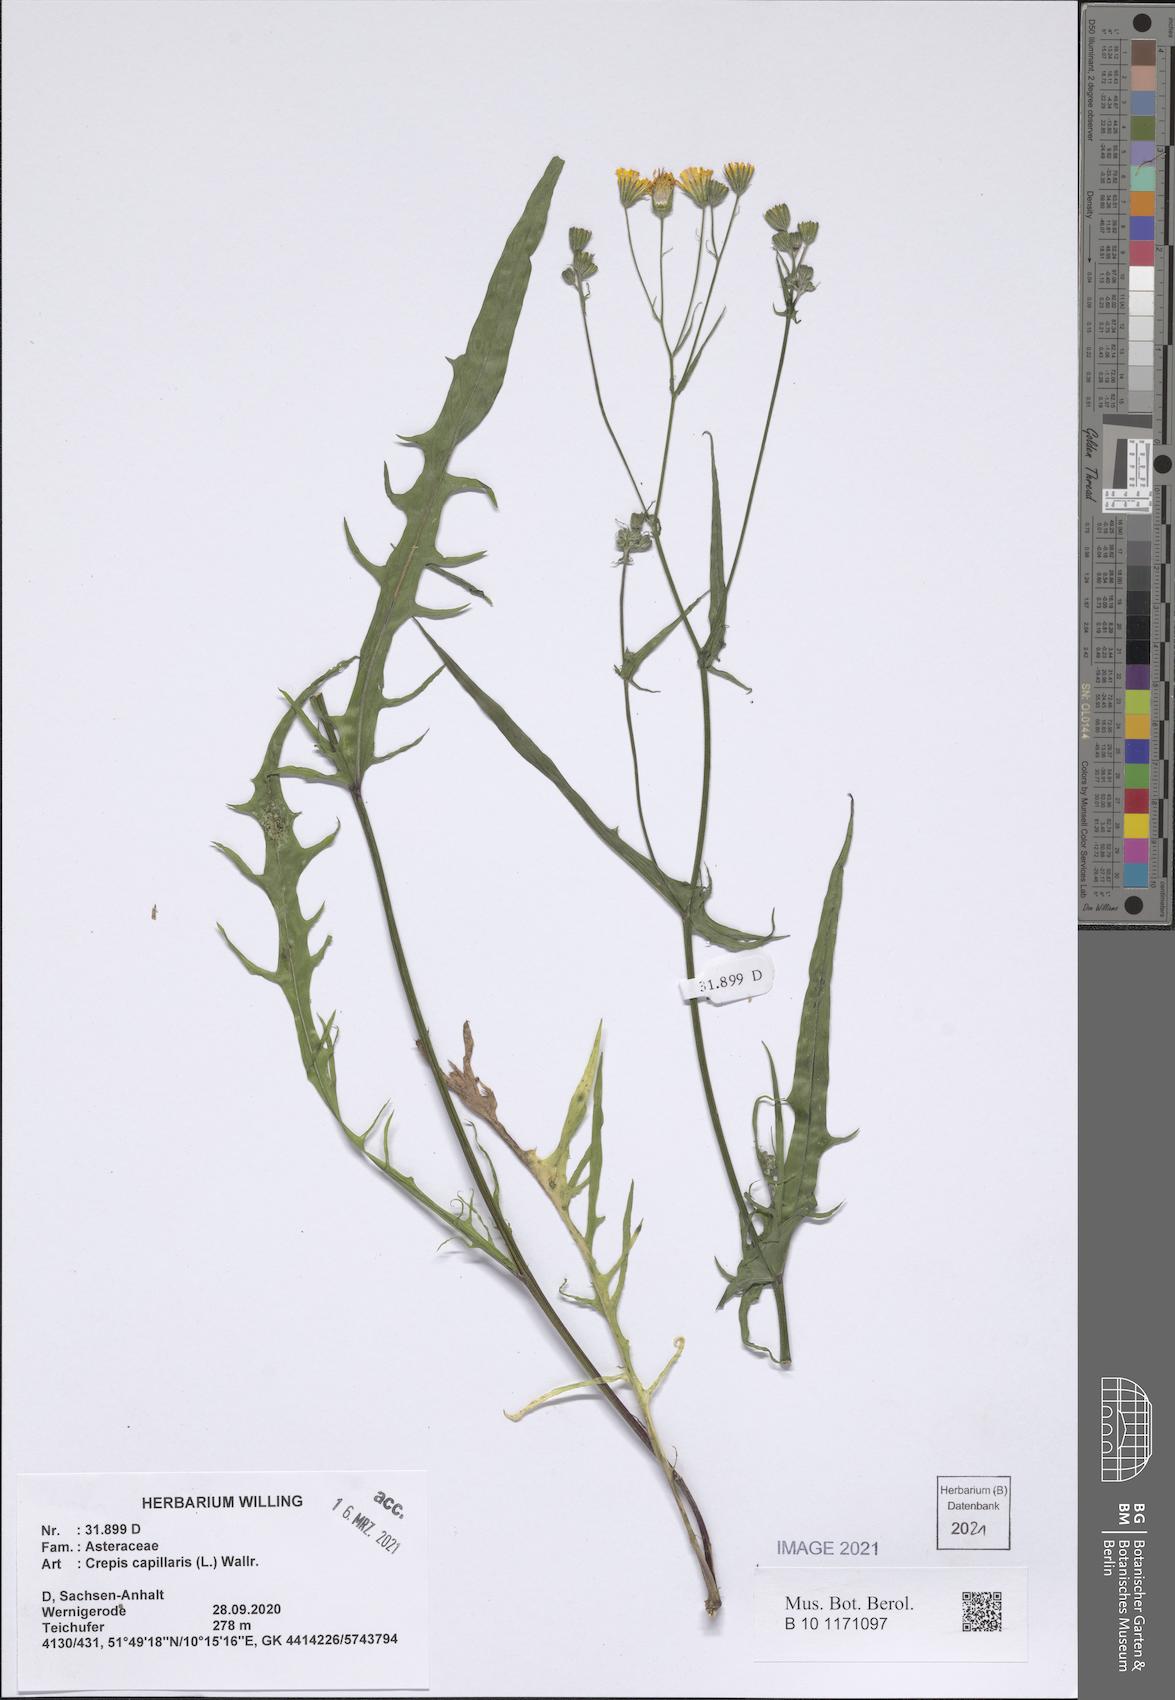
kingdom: Plantae
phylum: Tracheophyta
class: Magnoliopsida
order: Asterales
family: Asteraceae
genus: Crepis
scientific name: Crepis capillaris
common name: Smooth hawksbeard
